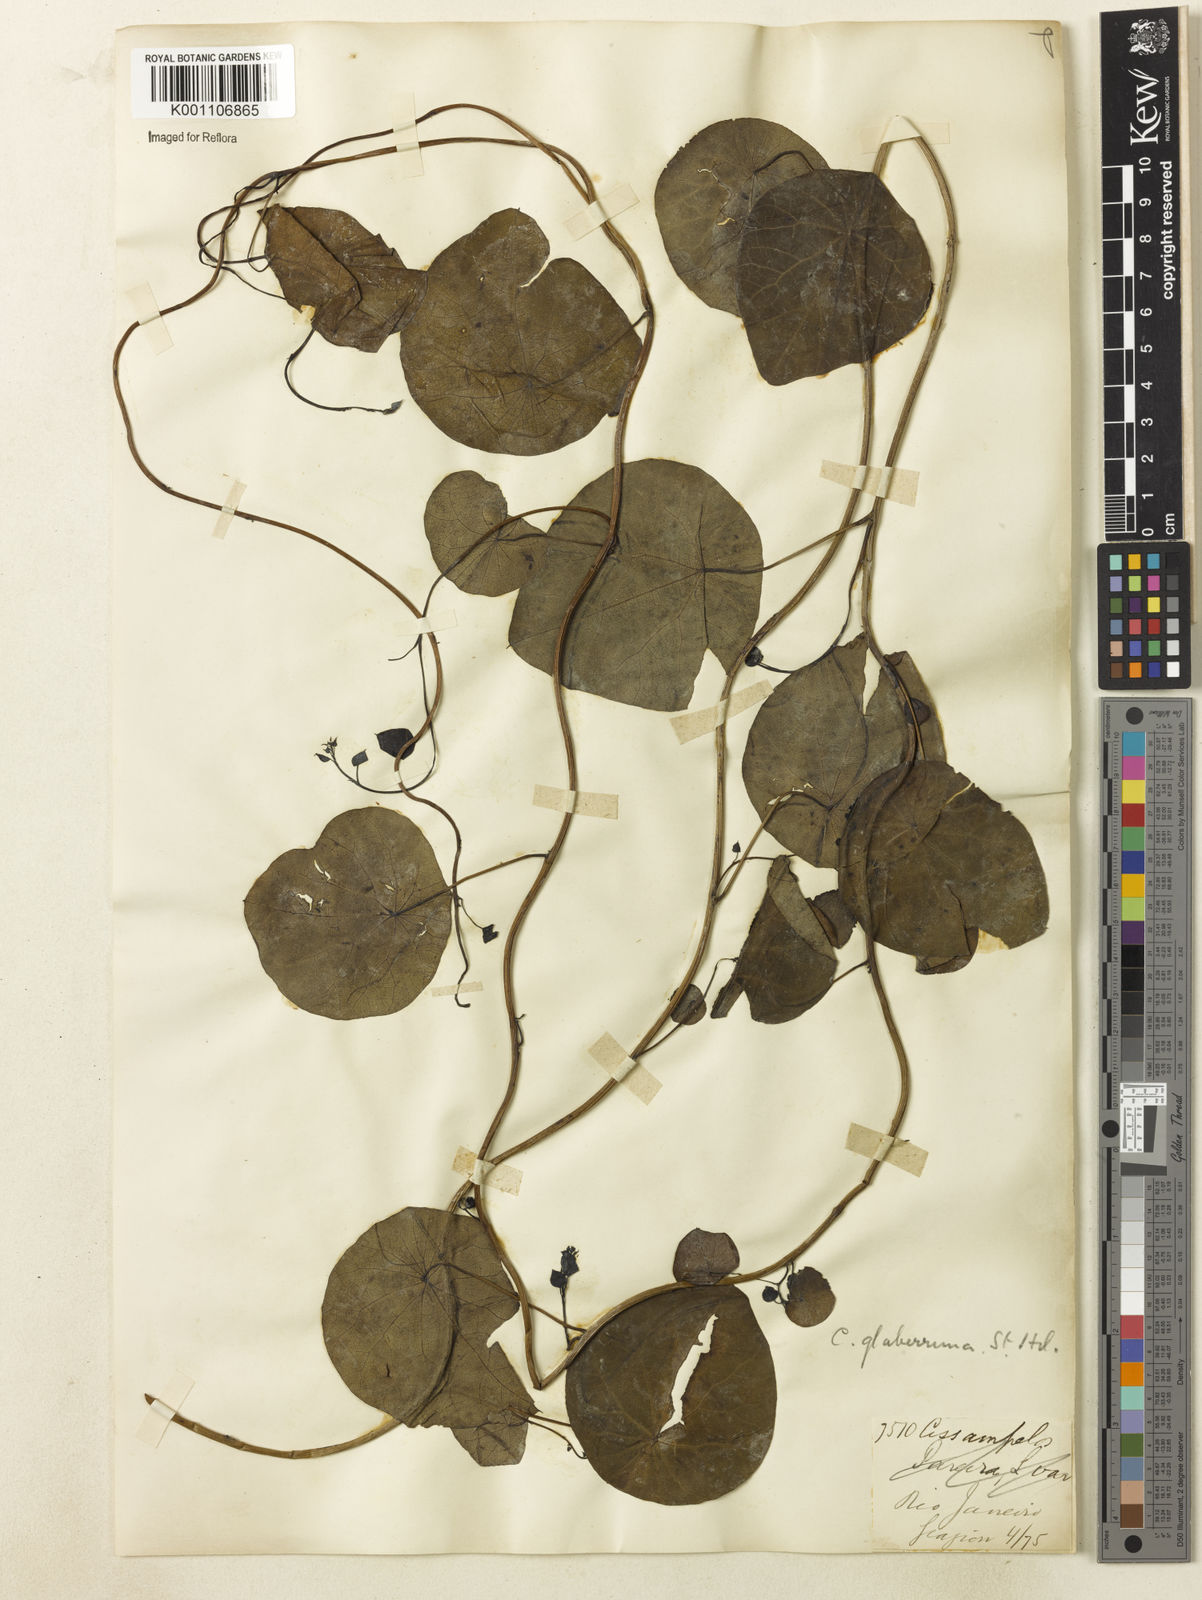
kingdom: Plantae
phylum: Tracheophyta
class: Magnoliopsida
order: Ranunculales
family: Menispermaceae
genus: Cissampelos
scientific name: Cissampelos glaberrima
